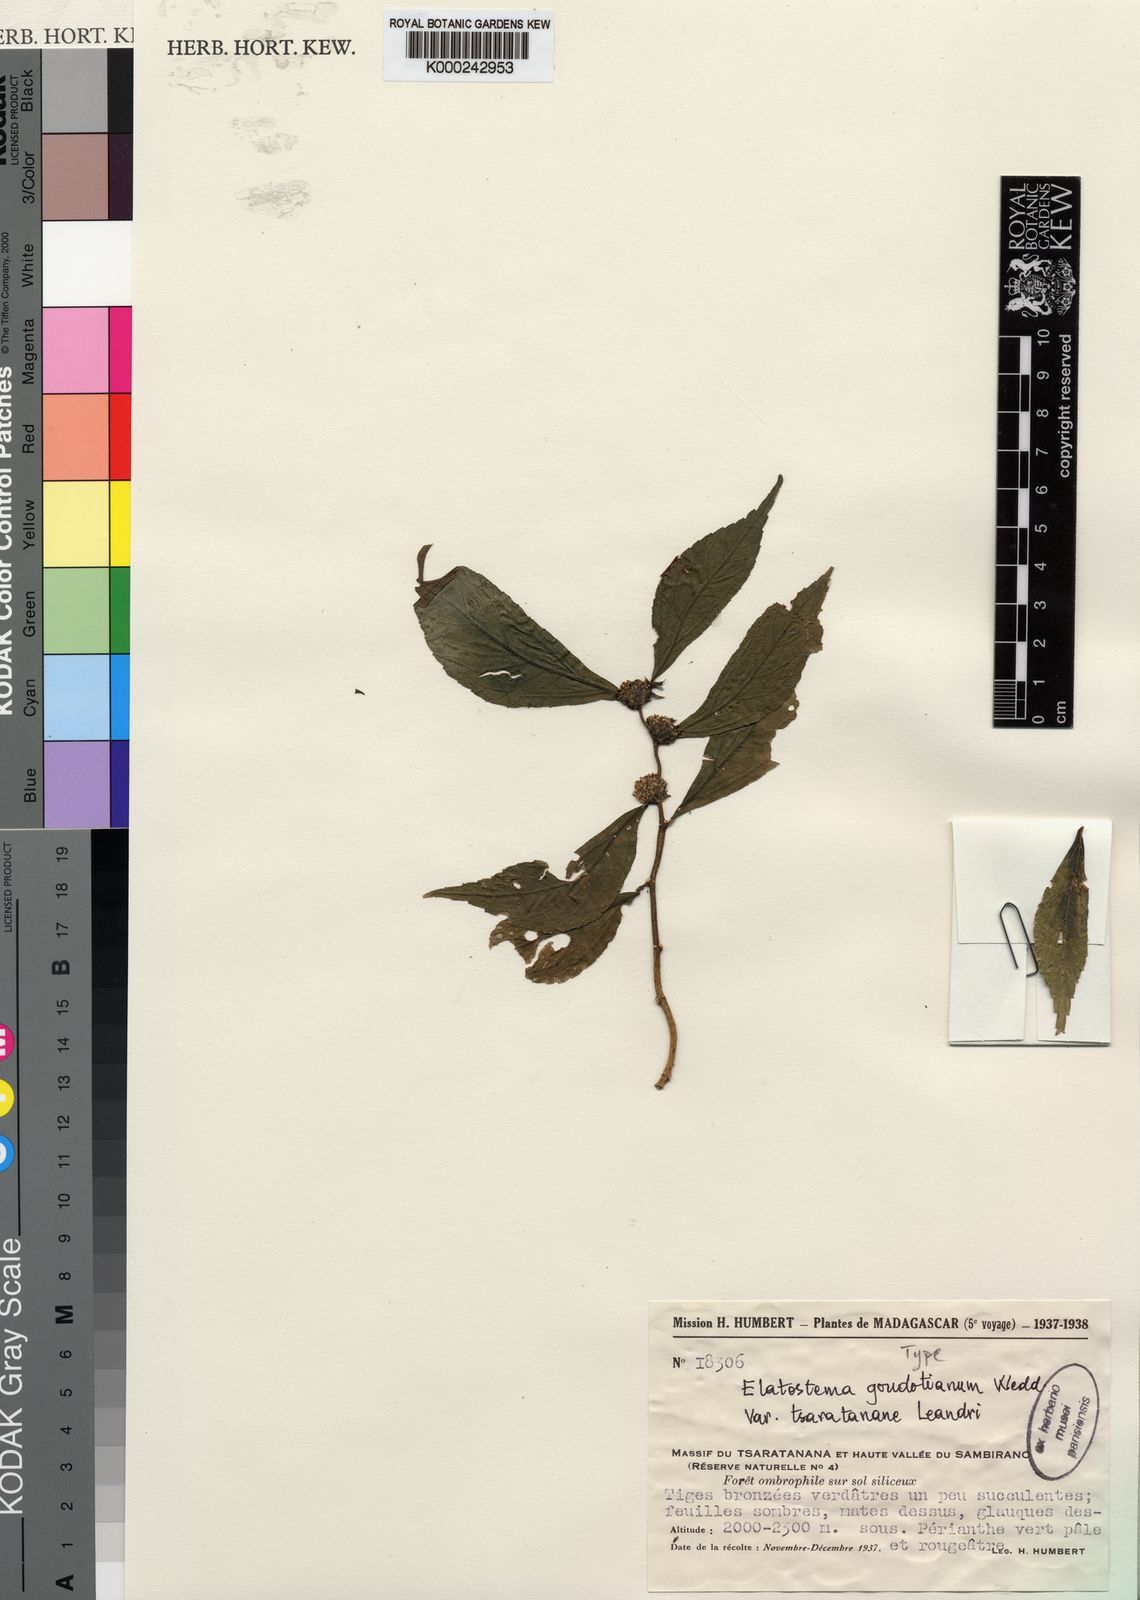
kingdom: Plantae
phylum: Tracheophyta
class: Magnoliopsida
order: Rosales
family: Urticaceae
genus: Elatostema
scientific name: Elatostema
